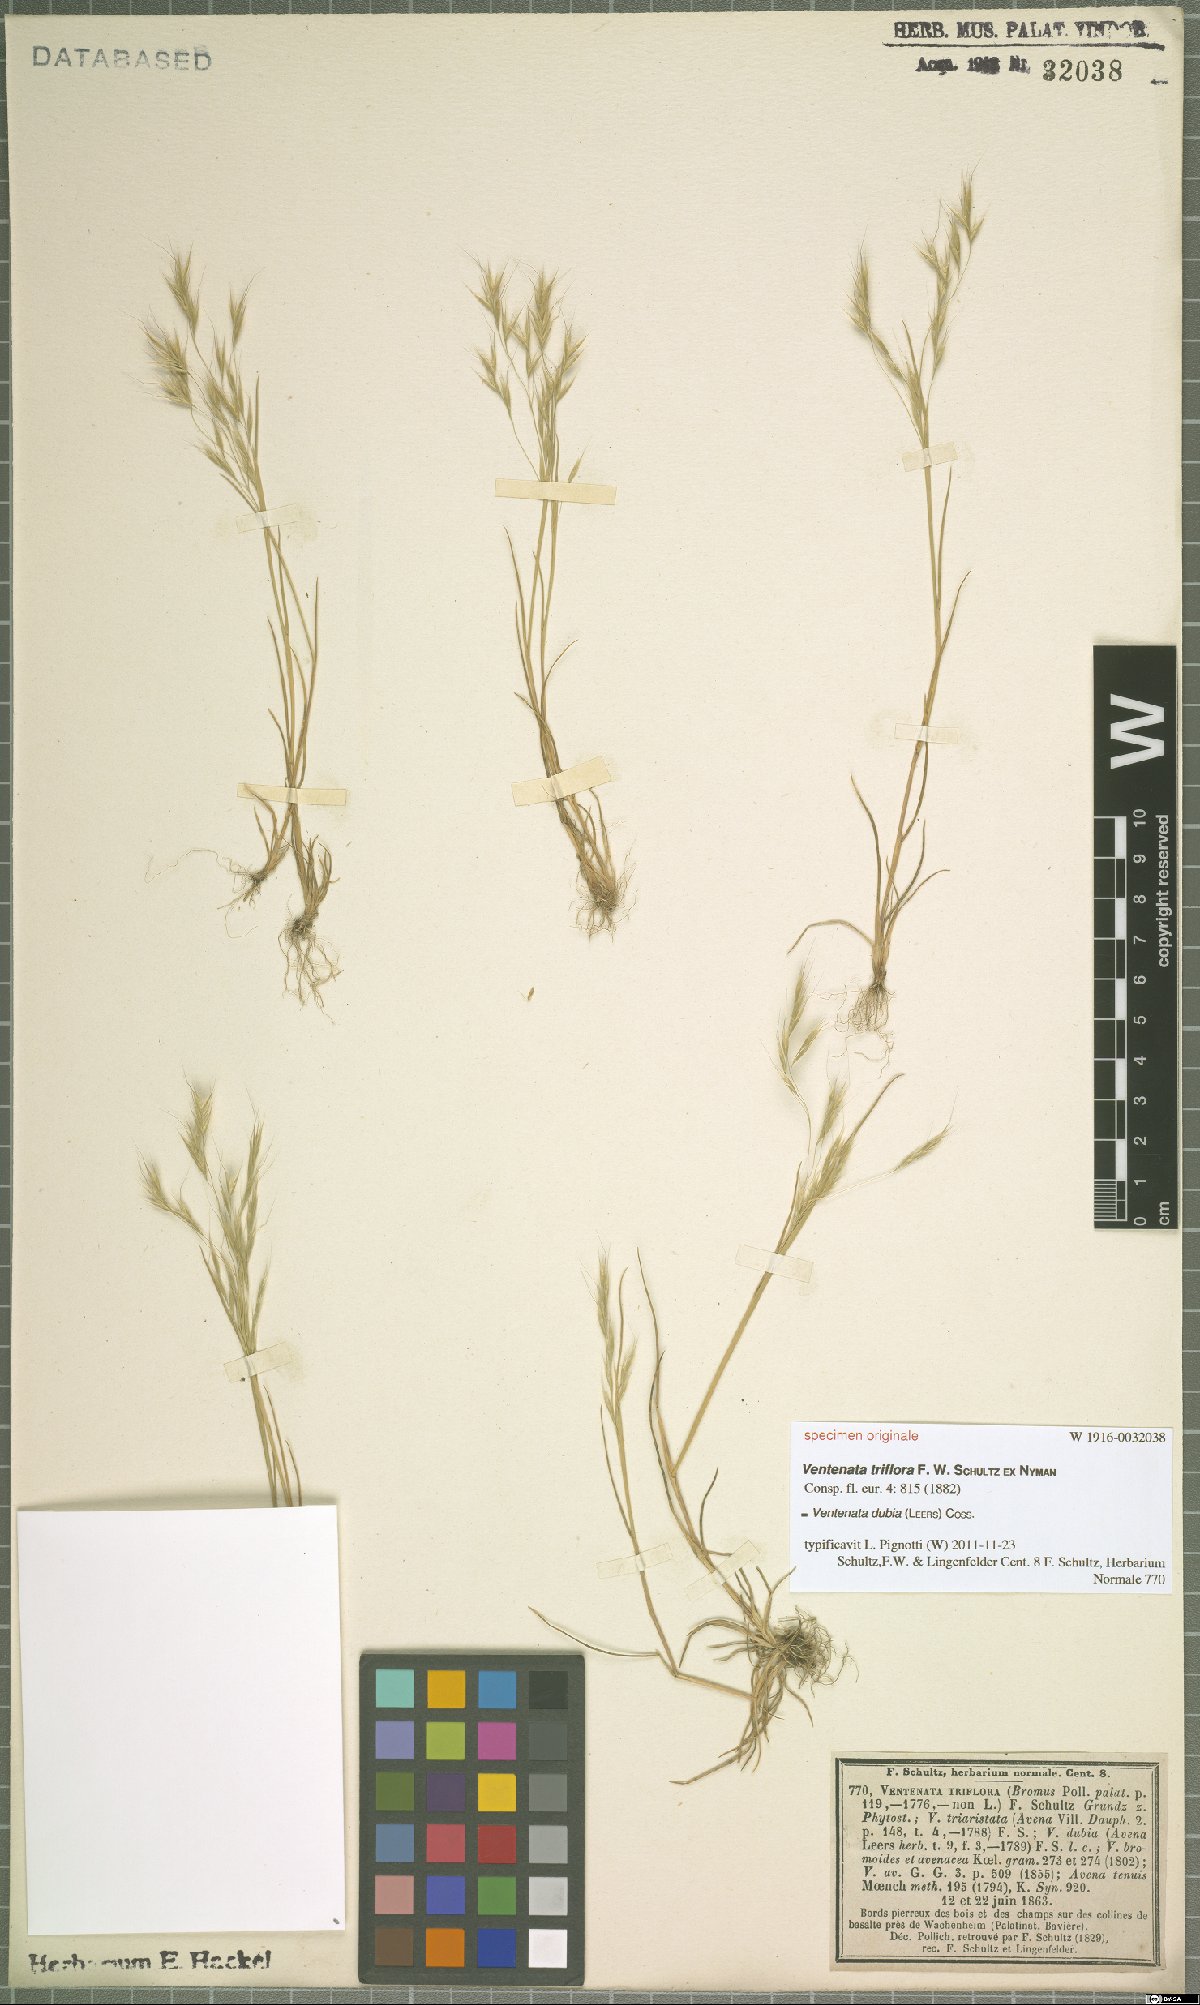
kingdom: Plantae
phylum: Tracheophyta
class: Liliopsida
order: Poales
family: Poaceae
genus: Ventenata
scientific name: Ventenata dubia
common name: North africa grass
